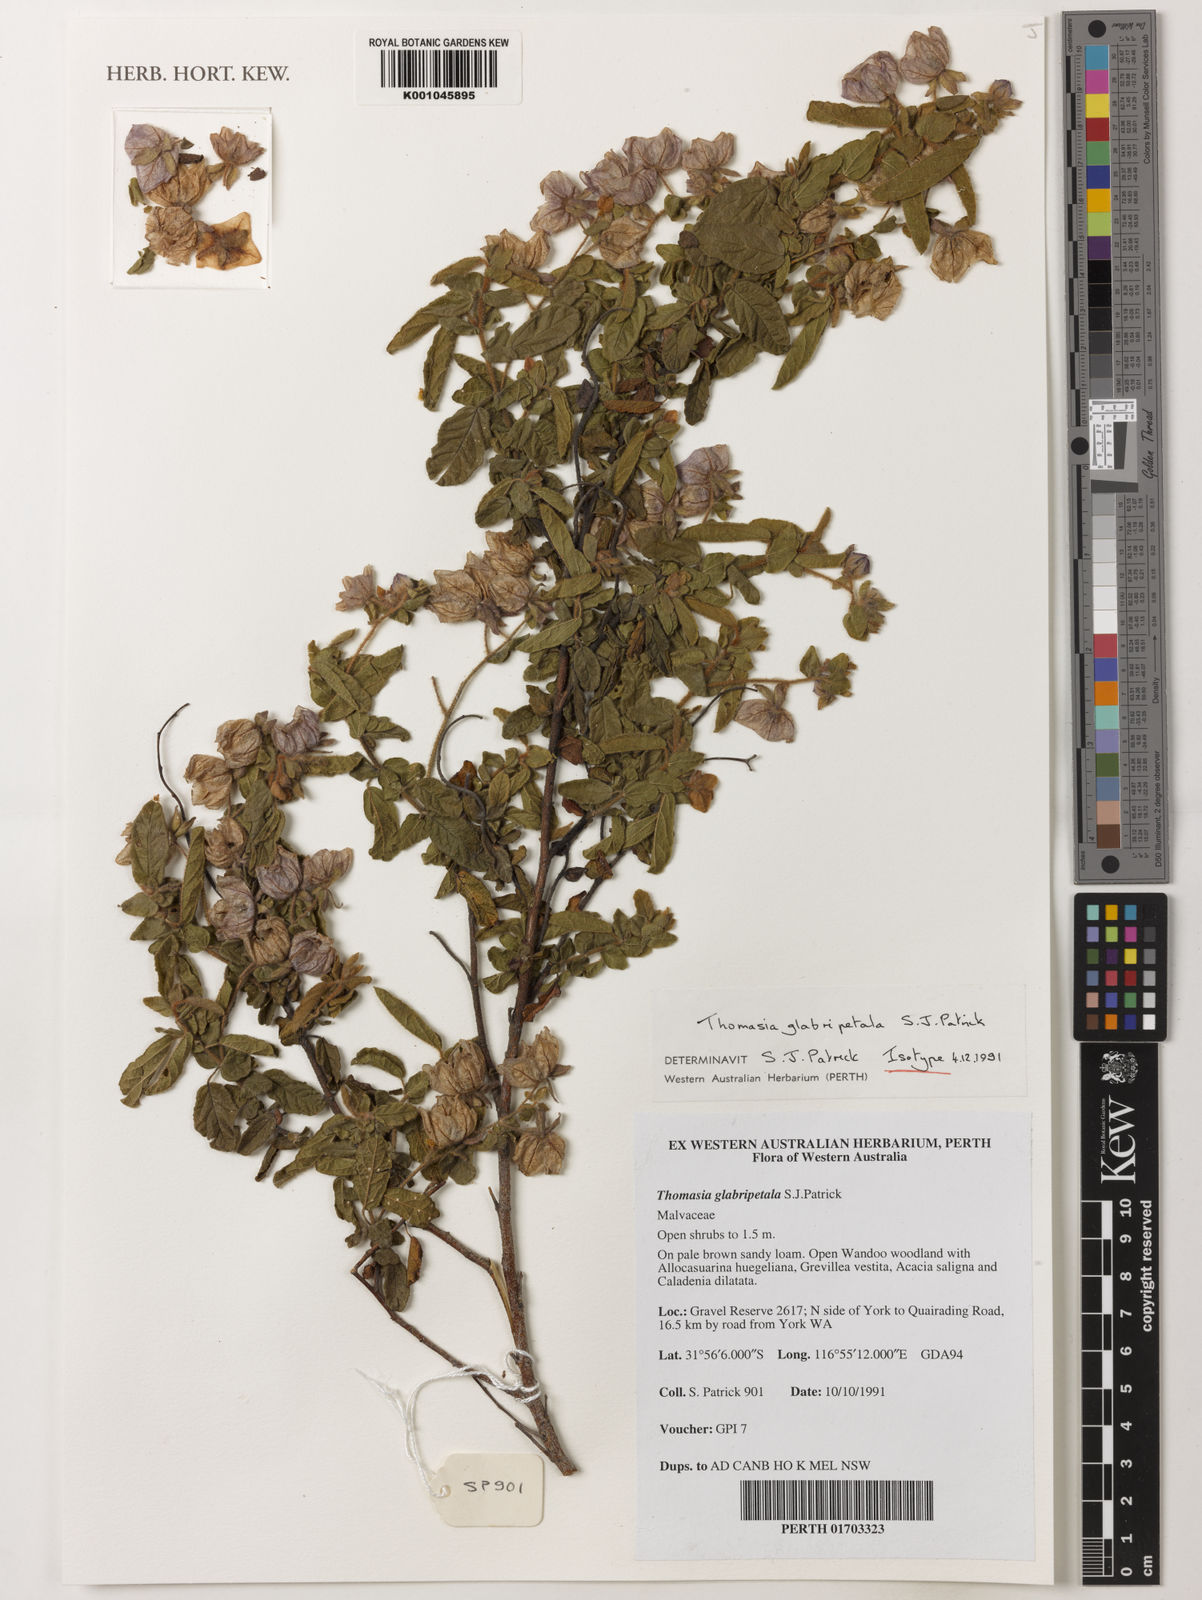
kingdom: Plantae
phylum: Tracheophyta
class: Magnoliopsida
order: Malvales
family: Malvaceae
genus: Thomasia
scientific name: Thomasia glabripetala
